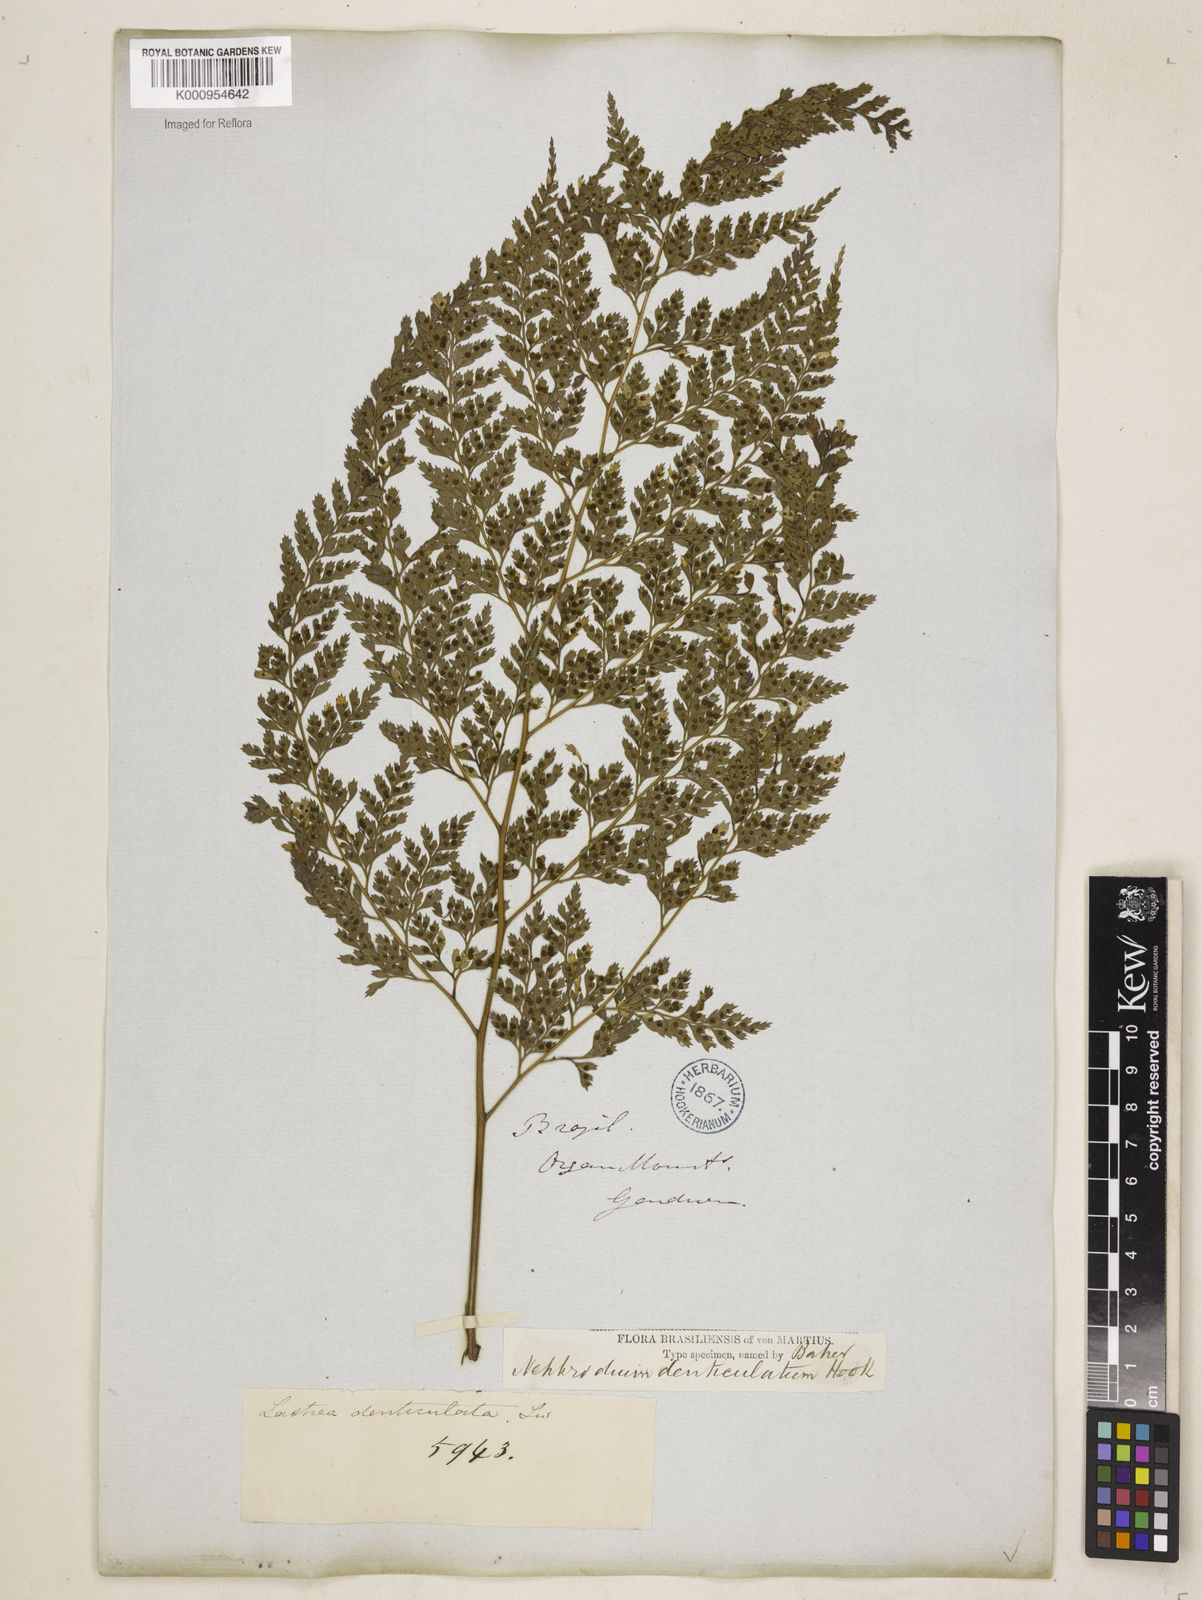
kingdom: Plantae
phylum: Tracheophyta
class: Polypodiopsida
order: Polypodiales
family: Dryopteridaceae
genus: Arachniodes
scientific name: Arachniodes denticulata
